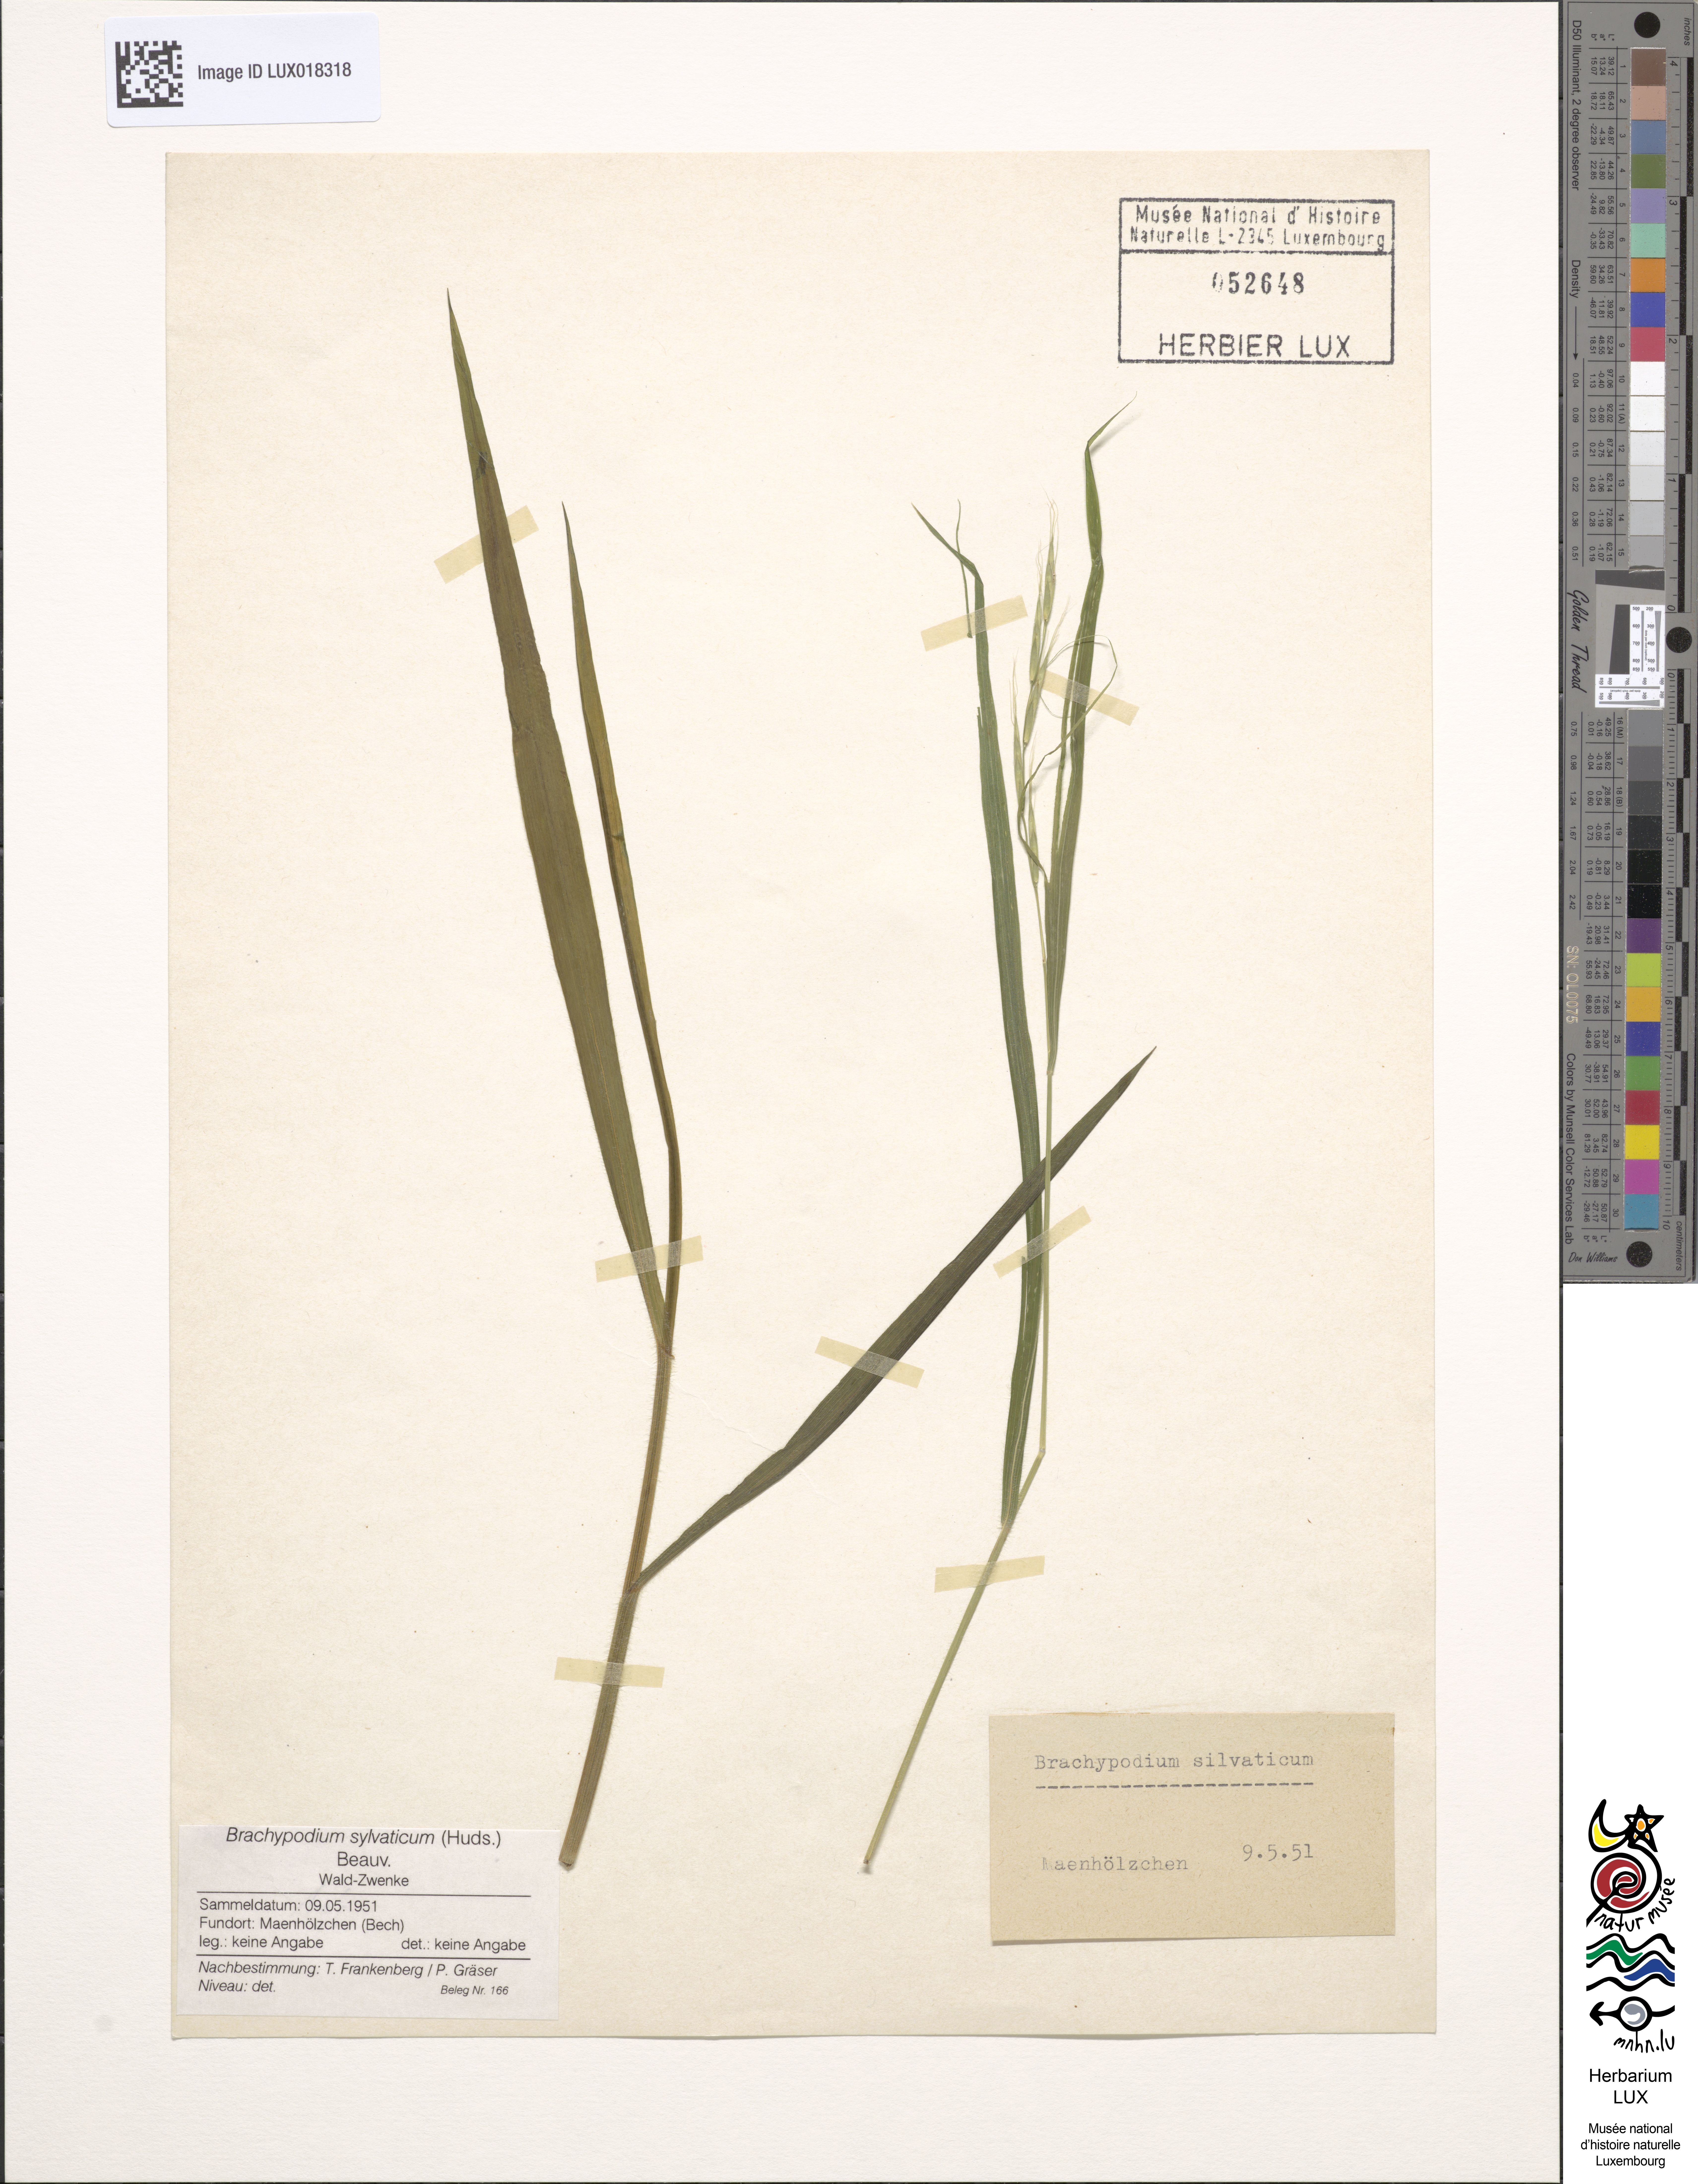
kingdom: Plantae
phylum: Tracheophyta
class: Liliopsida
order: Poales
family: Poaceae
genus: Brachypodium
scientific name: Brachypodium sylvaticum
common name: False-brome
